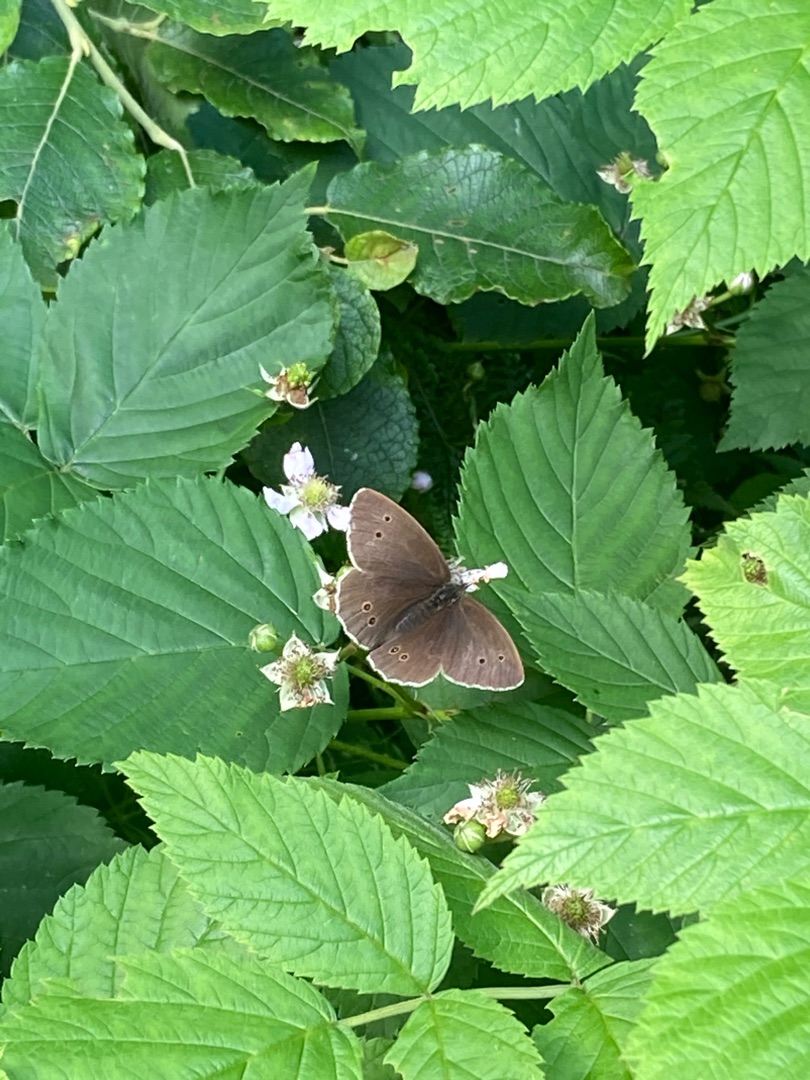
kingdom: Animalia
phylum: Arthropoda
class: Insecta
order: Lepidoptera
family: Nymphalidae
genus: Aphantopus
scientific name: Aphantopus hyperantus
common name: Engrandøje
